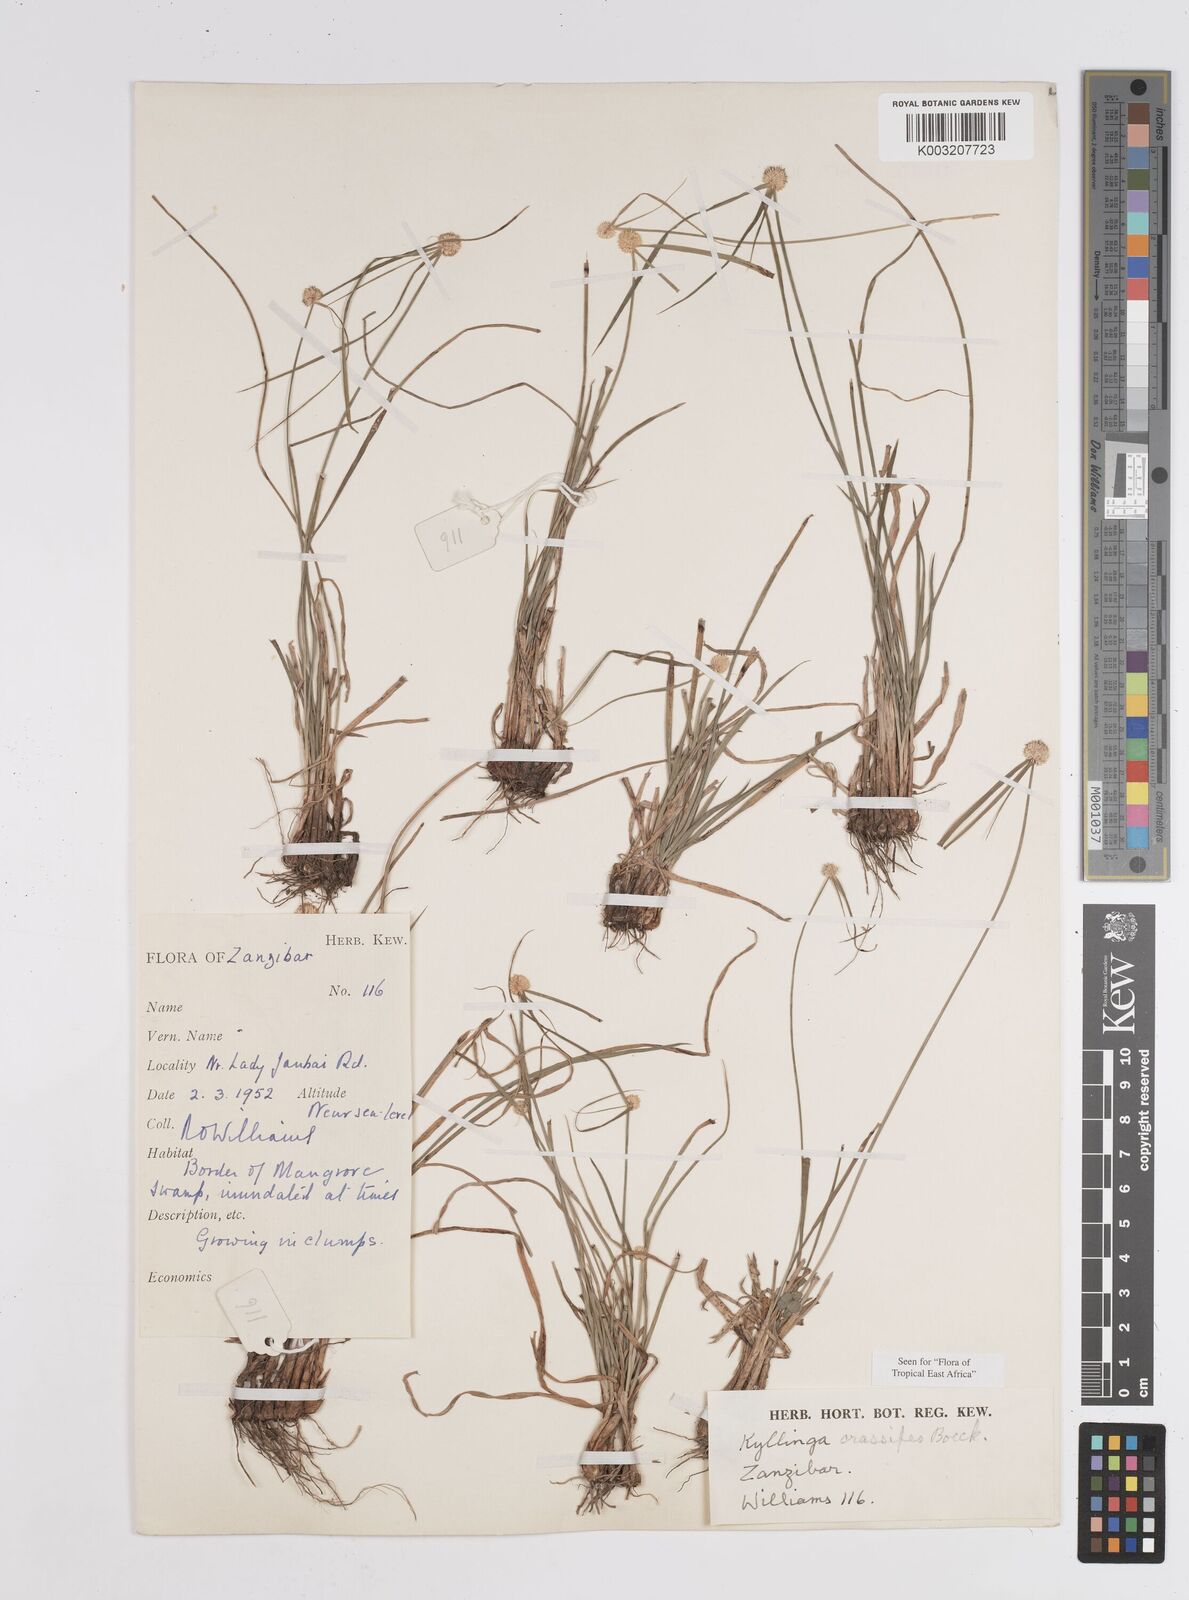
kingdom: Plantae
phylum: Tracheophyta
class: Liliopsida
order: Poales
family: Cyperaceae
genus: Cyperus
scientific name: Cyperus
